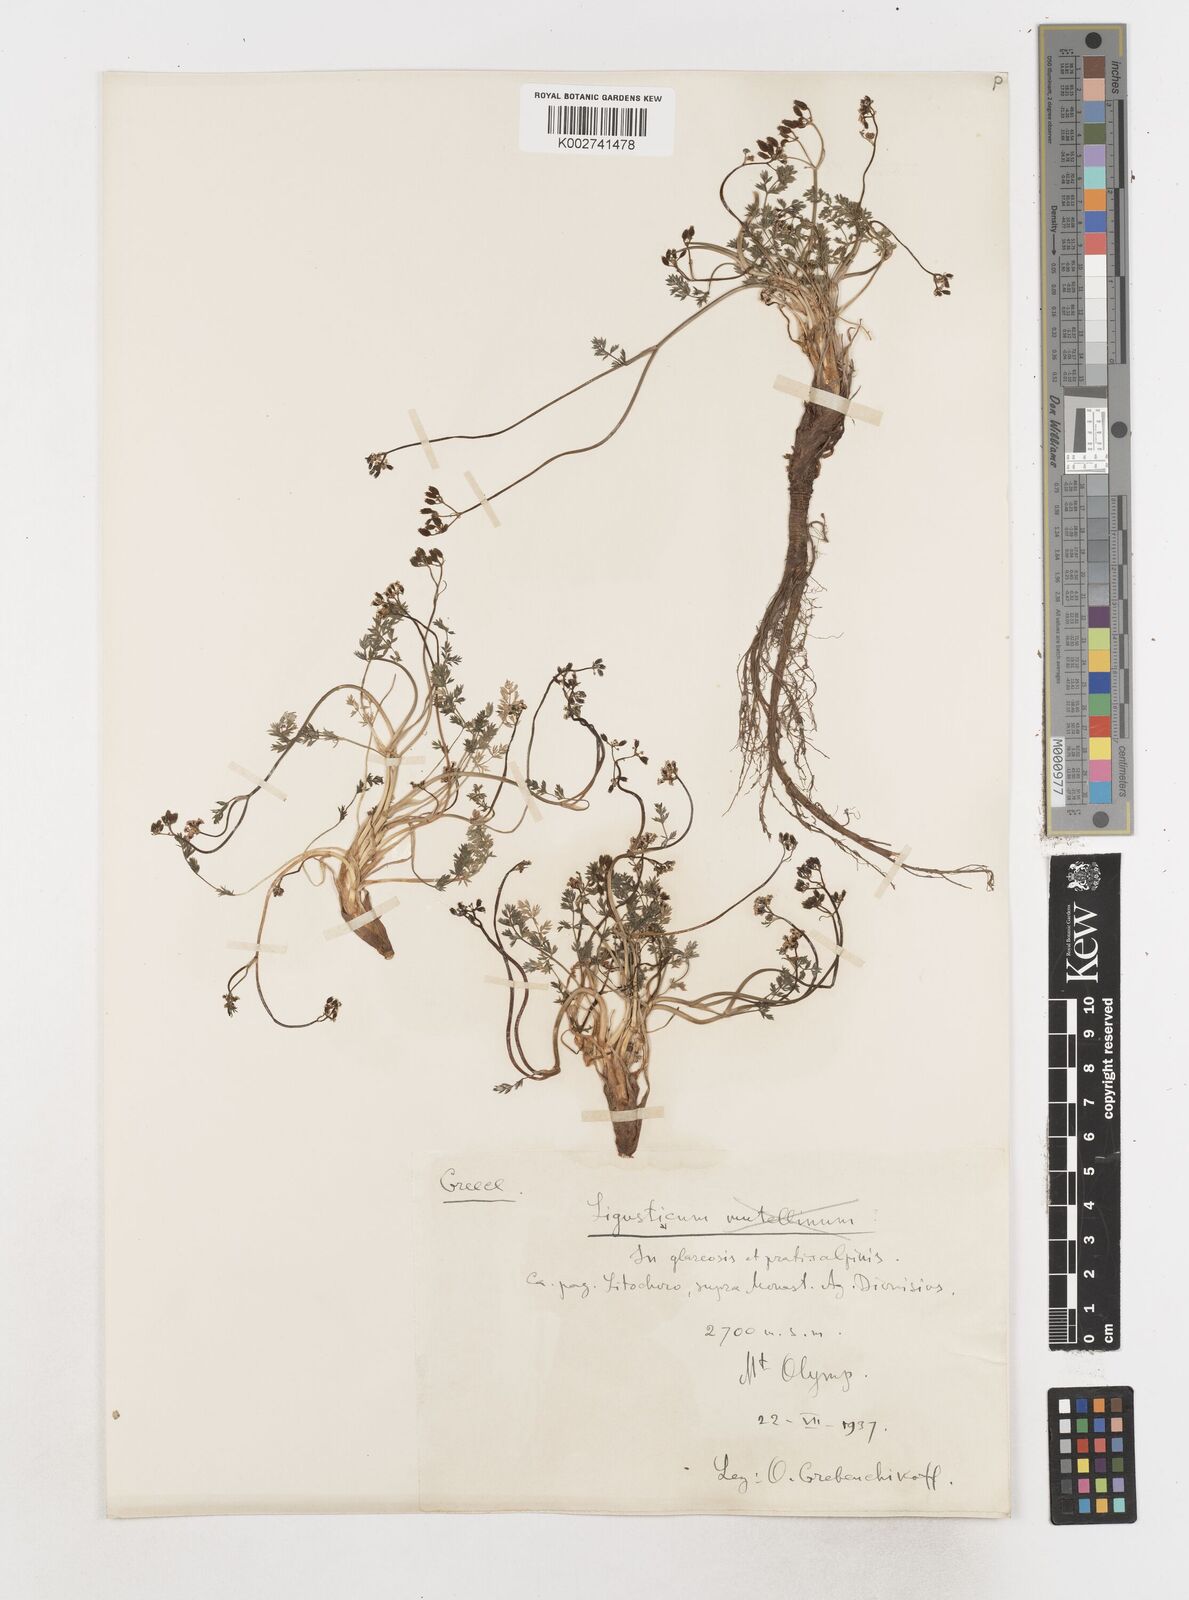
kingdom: Plantae
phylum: Tracheophyta
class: Magnoliopsida
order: Apiales
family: Apiaceae
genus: Ligusticum
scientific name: Ligusticum
